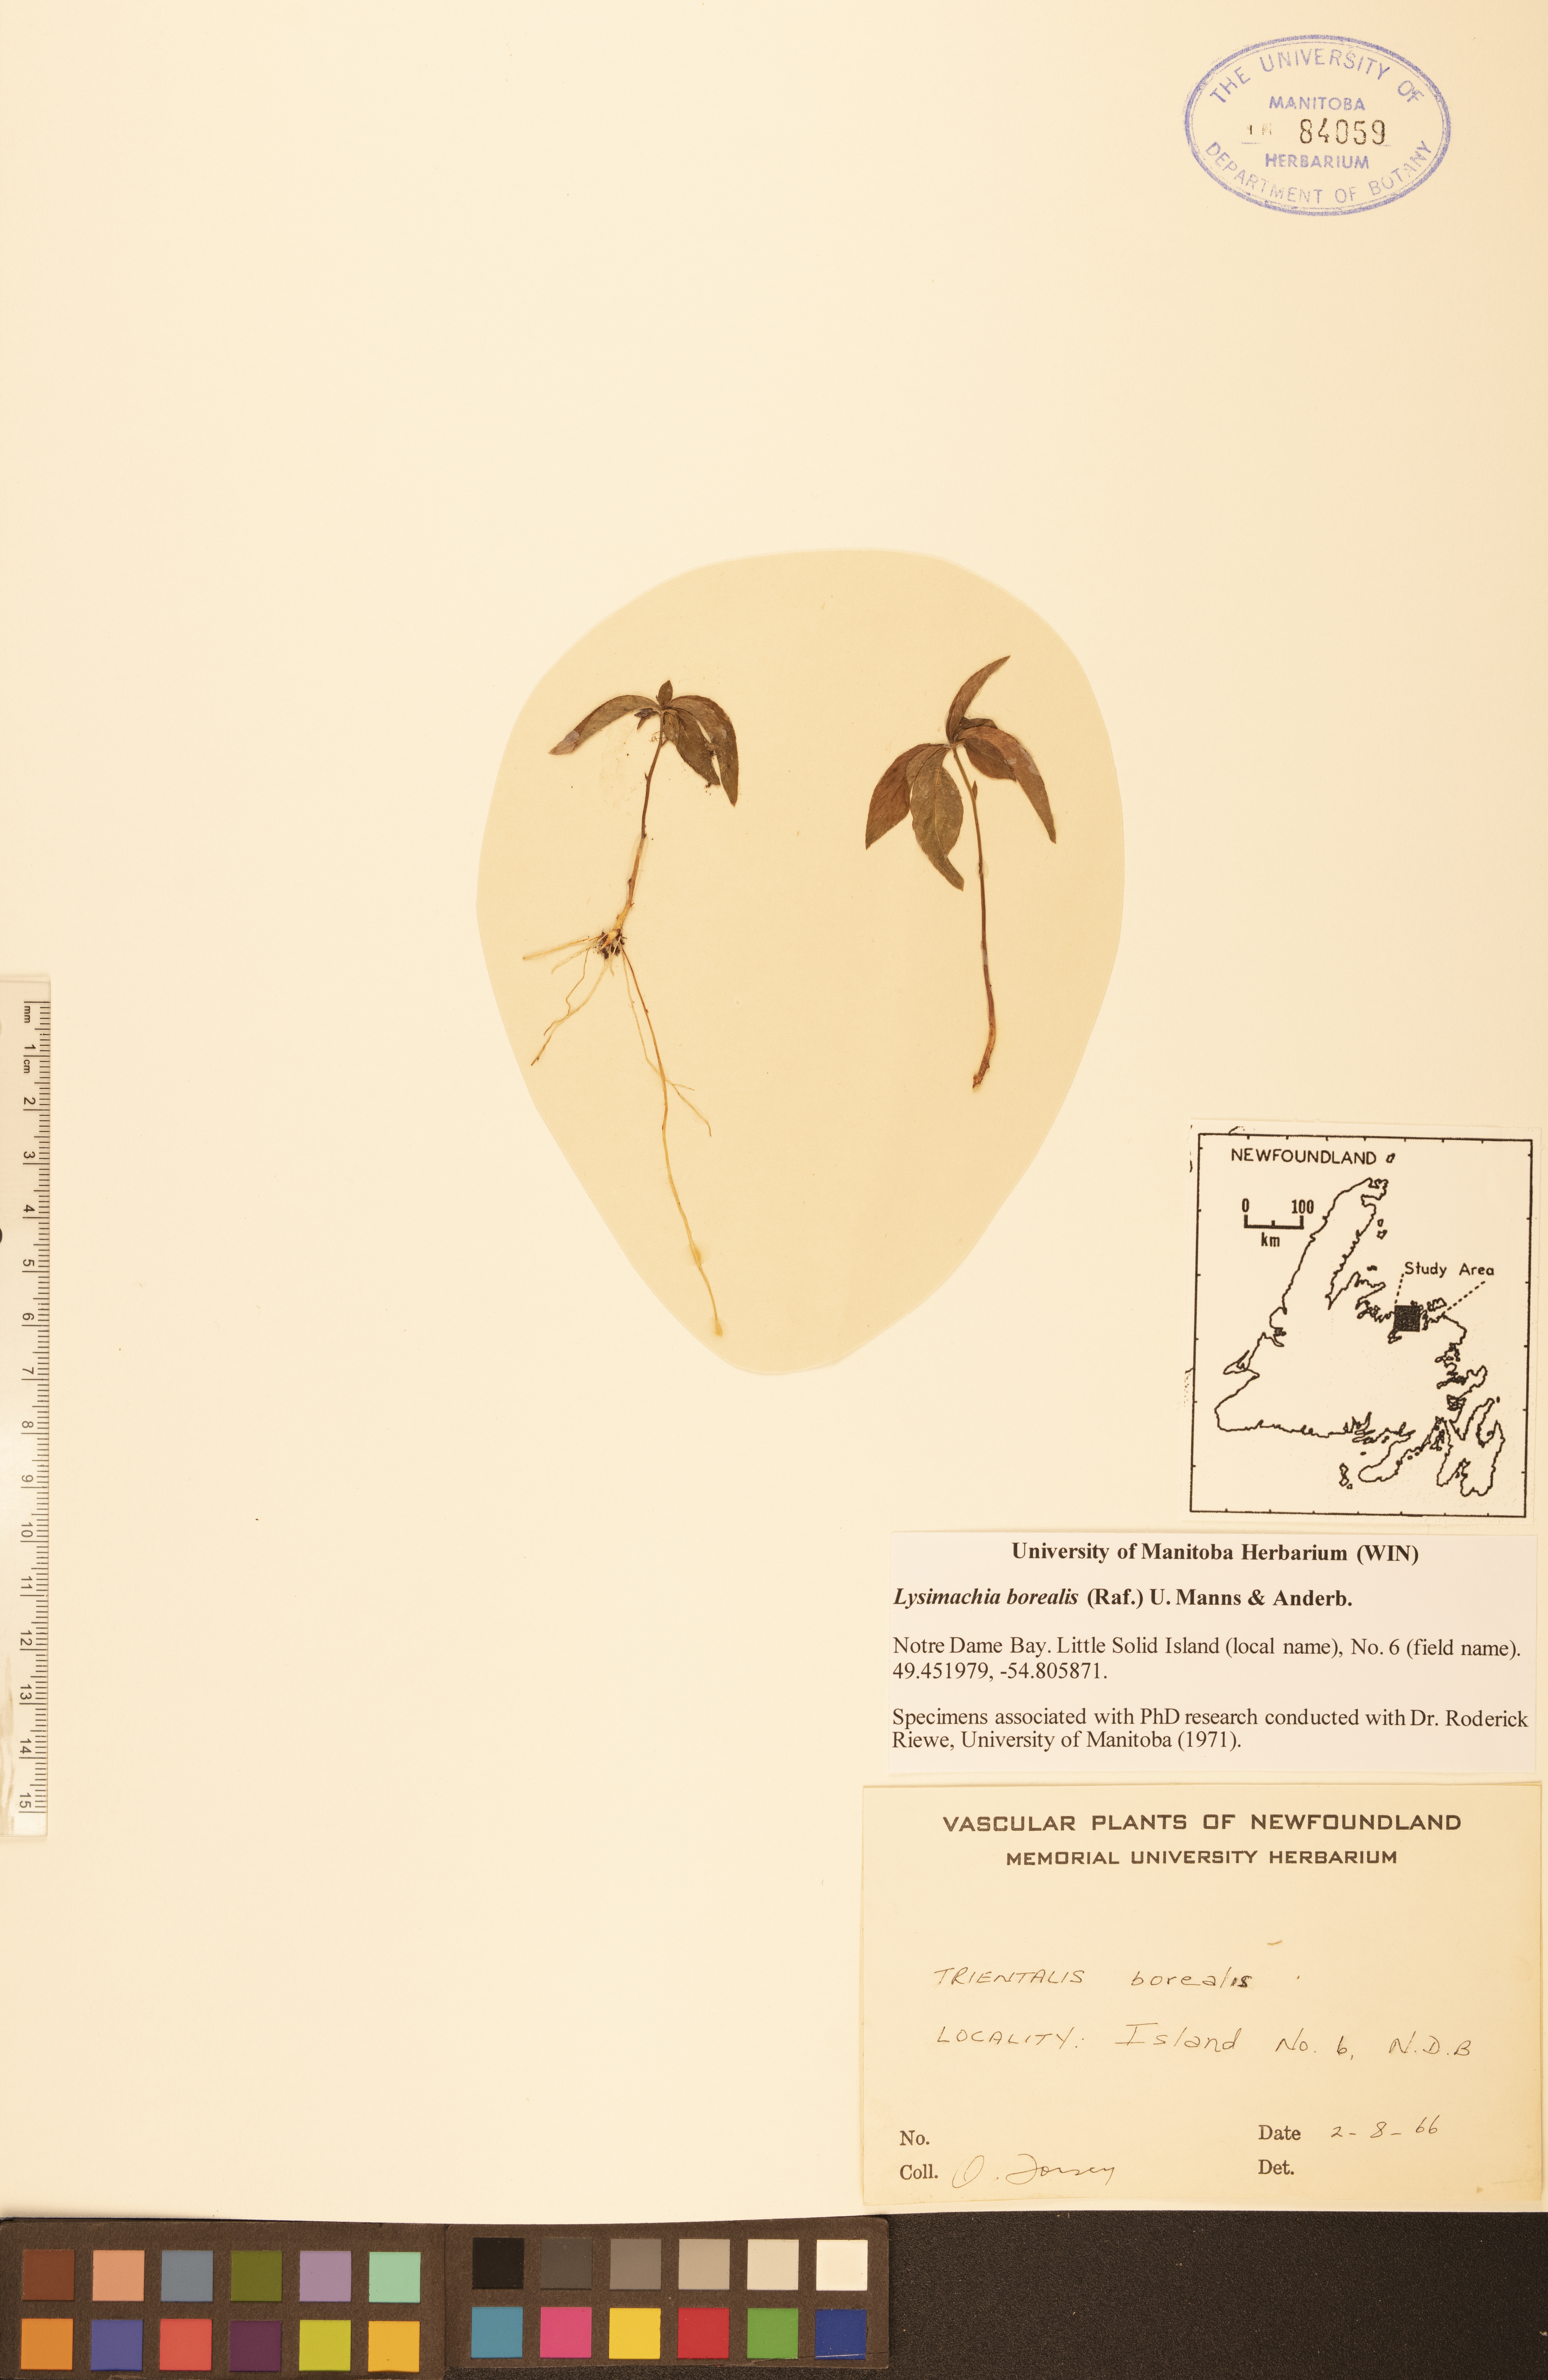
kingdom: Plantae
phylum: Tracheophyta
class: Magnoliopsida
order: Ericales
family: Primulaceae
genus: Lysimachia
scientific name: Lysimachia borealis
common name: American starflower
